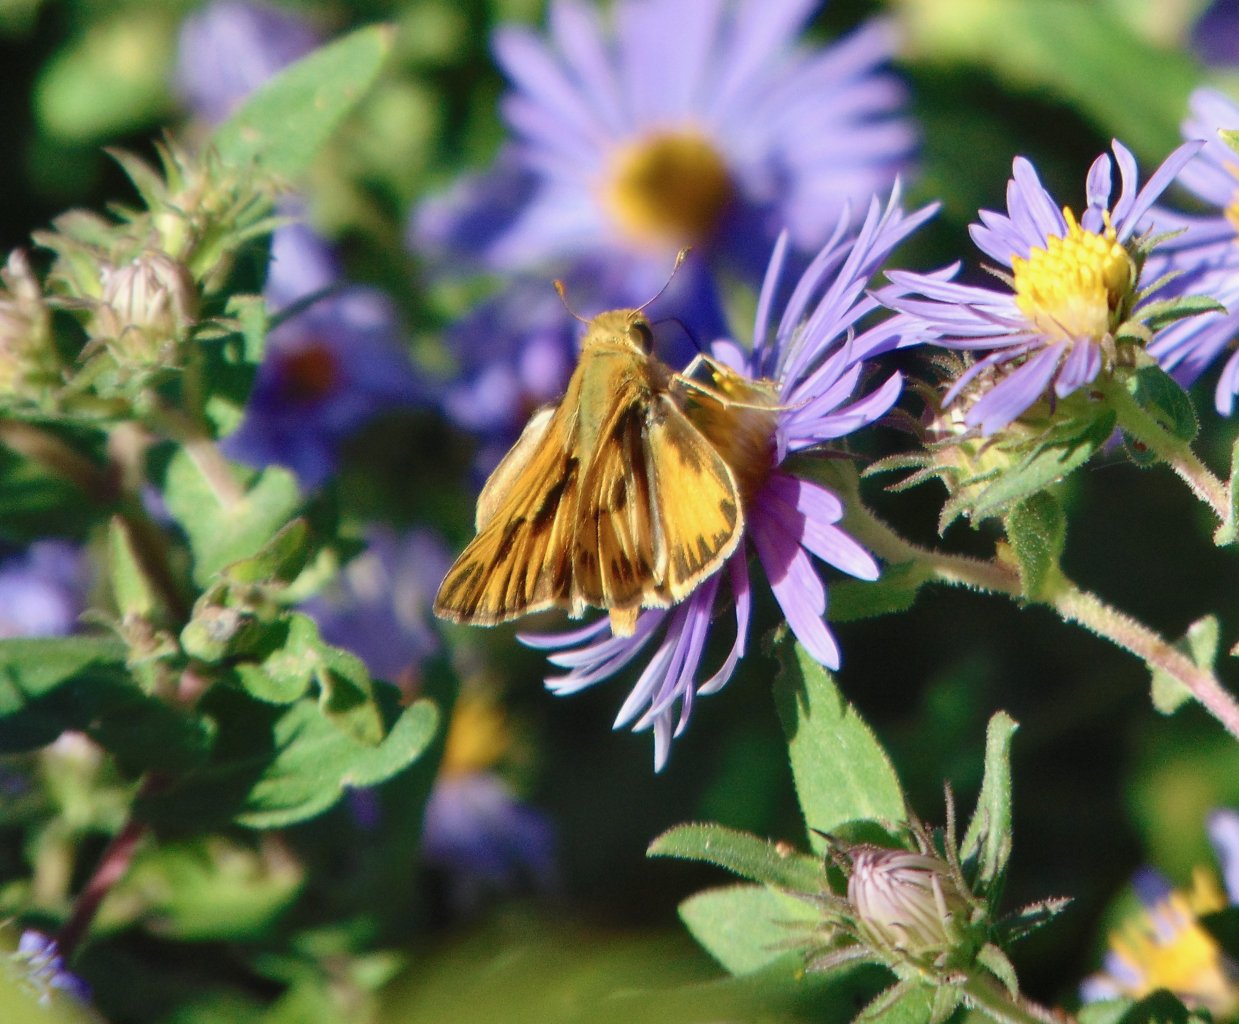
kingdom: Animalia
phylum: Arthropoda
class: Insecta
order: Lepidoptera
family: Hesperiidae
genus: Hylephila
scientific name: Hylephila phyleus
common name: Fiery Skipper
